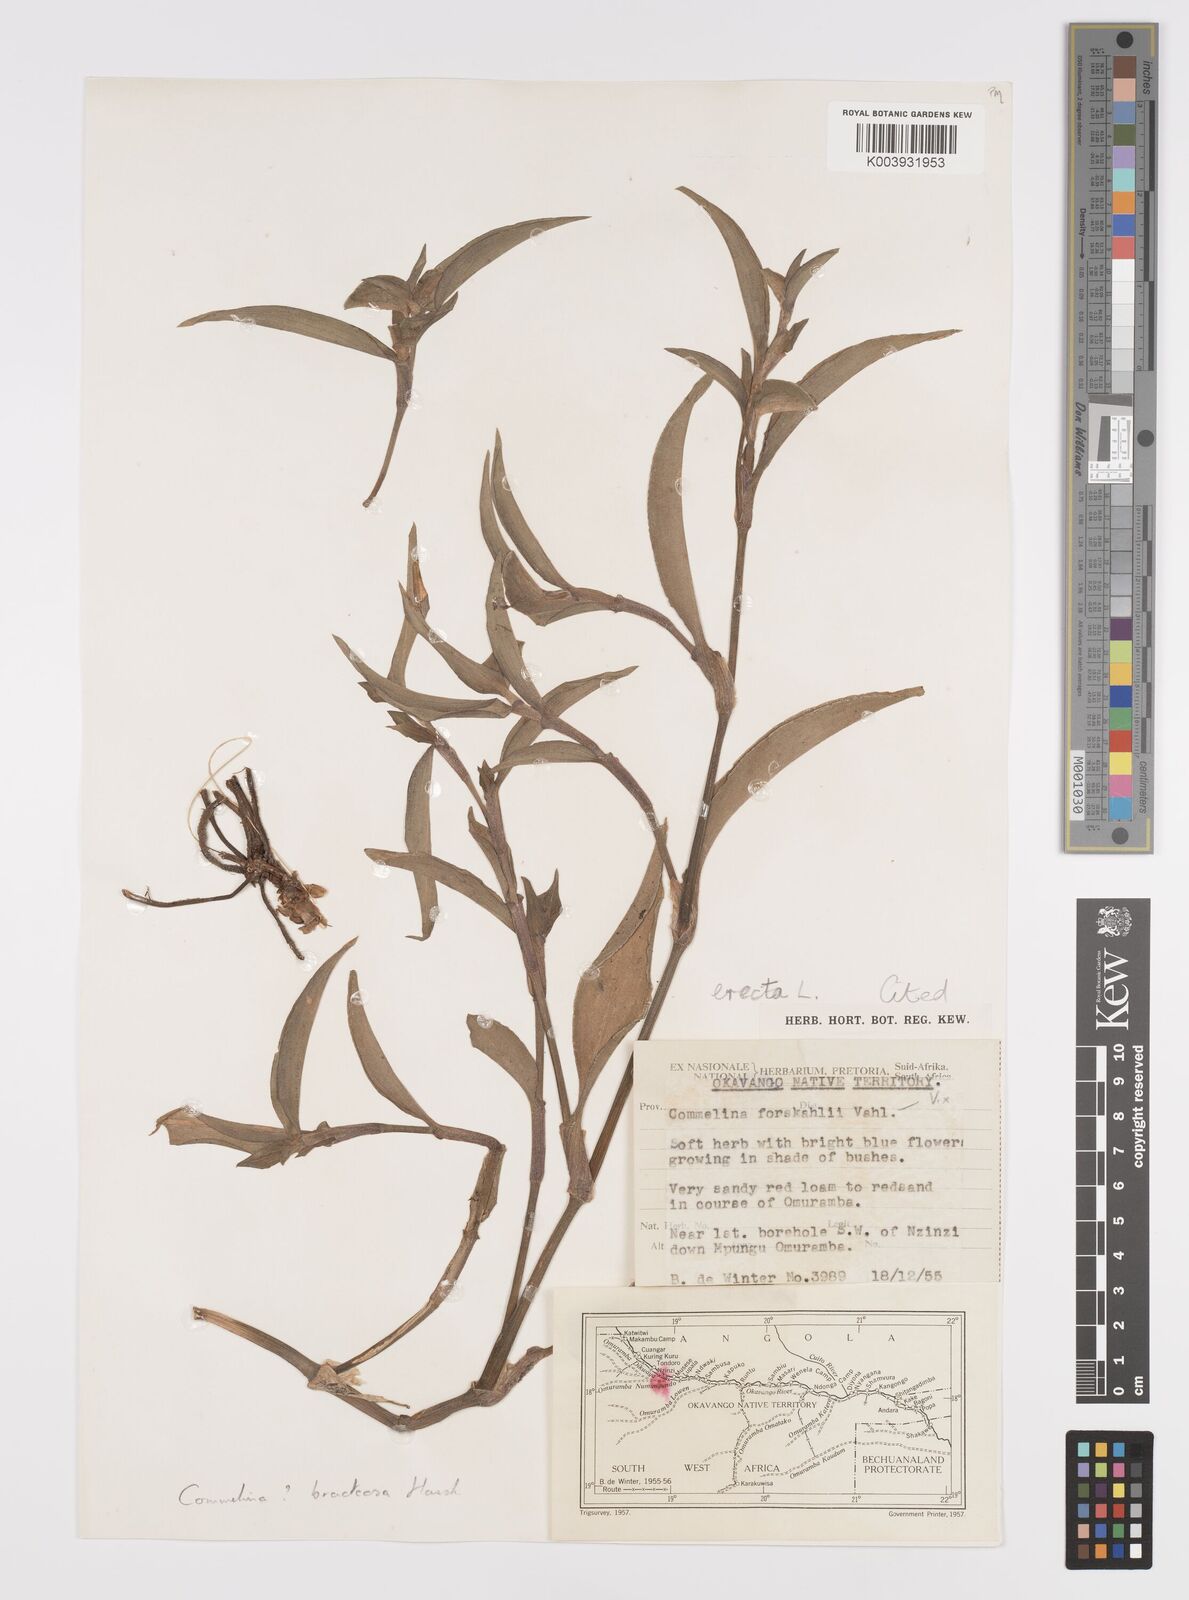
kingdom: Plantae
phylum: Tracheophyta
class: Liliopsida
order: Commelinales
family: Commelinaceae
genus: Commelina
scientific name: Commelina erecta
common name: Blousel blommetjie
